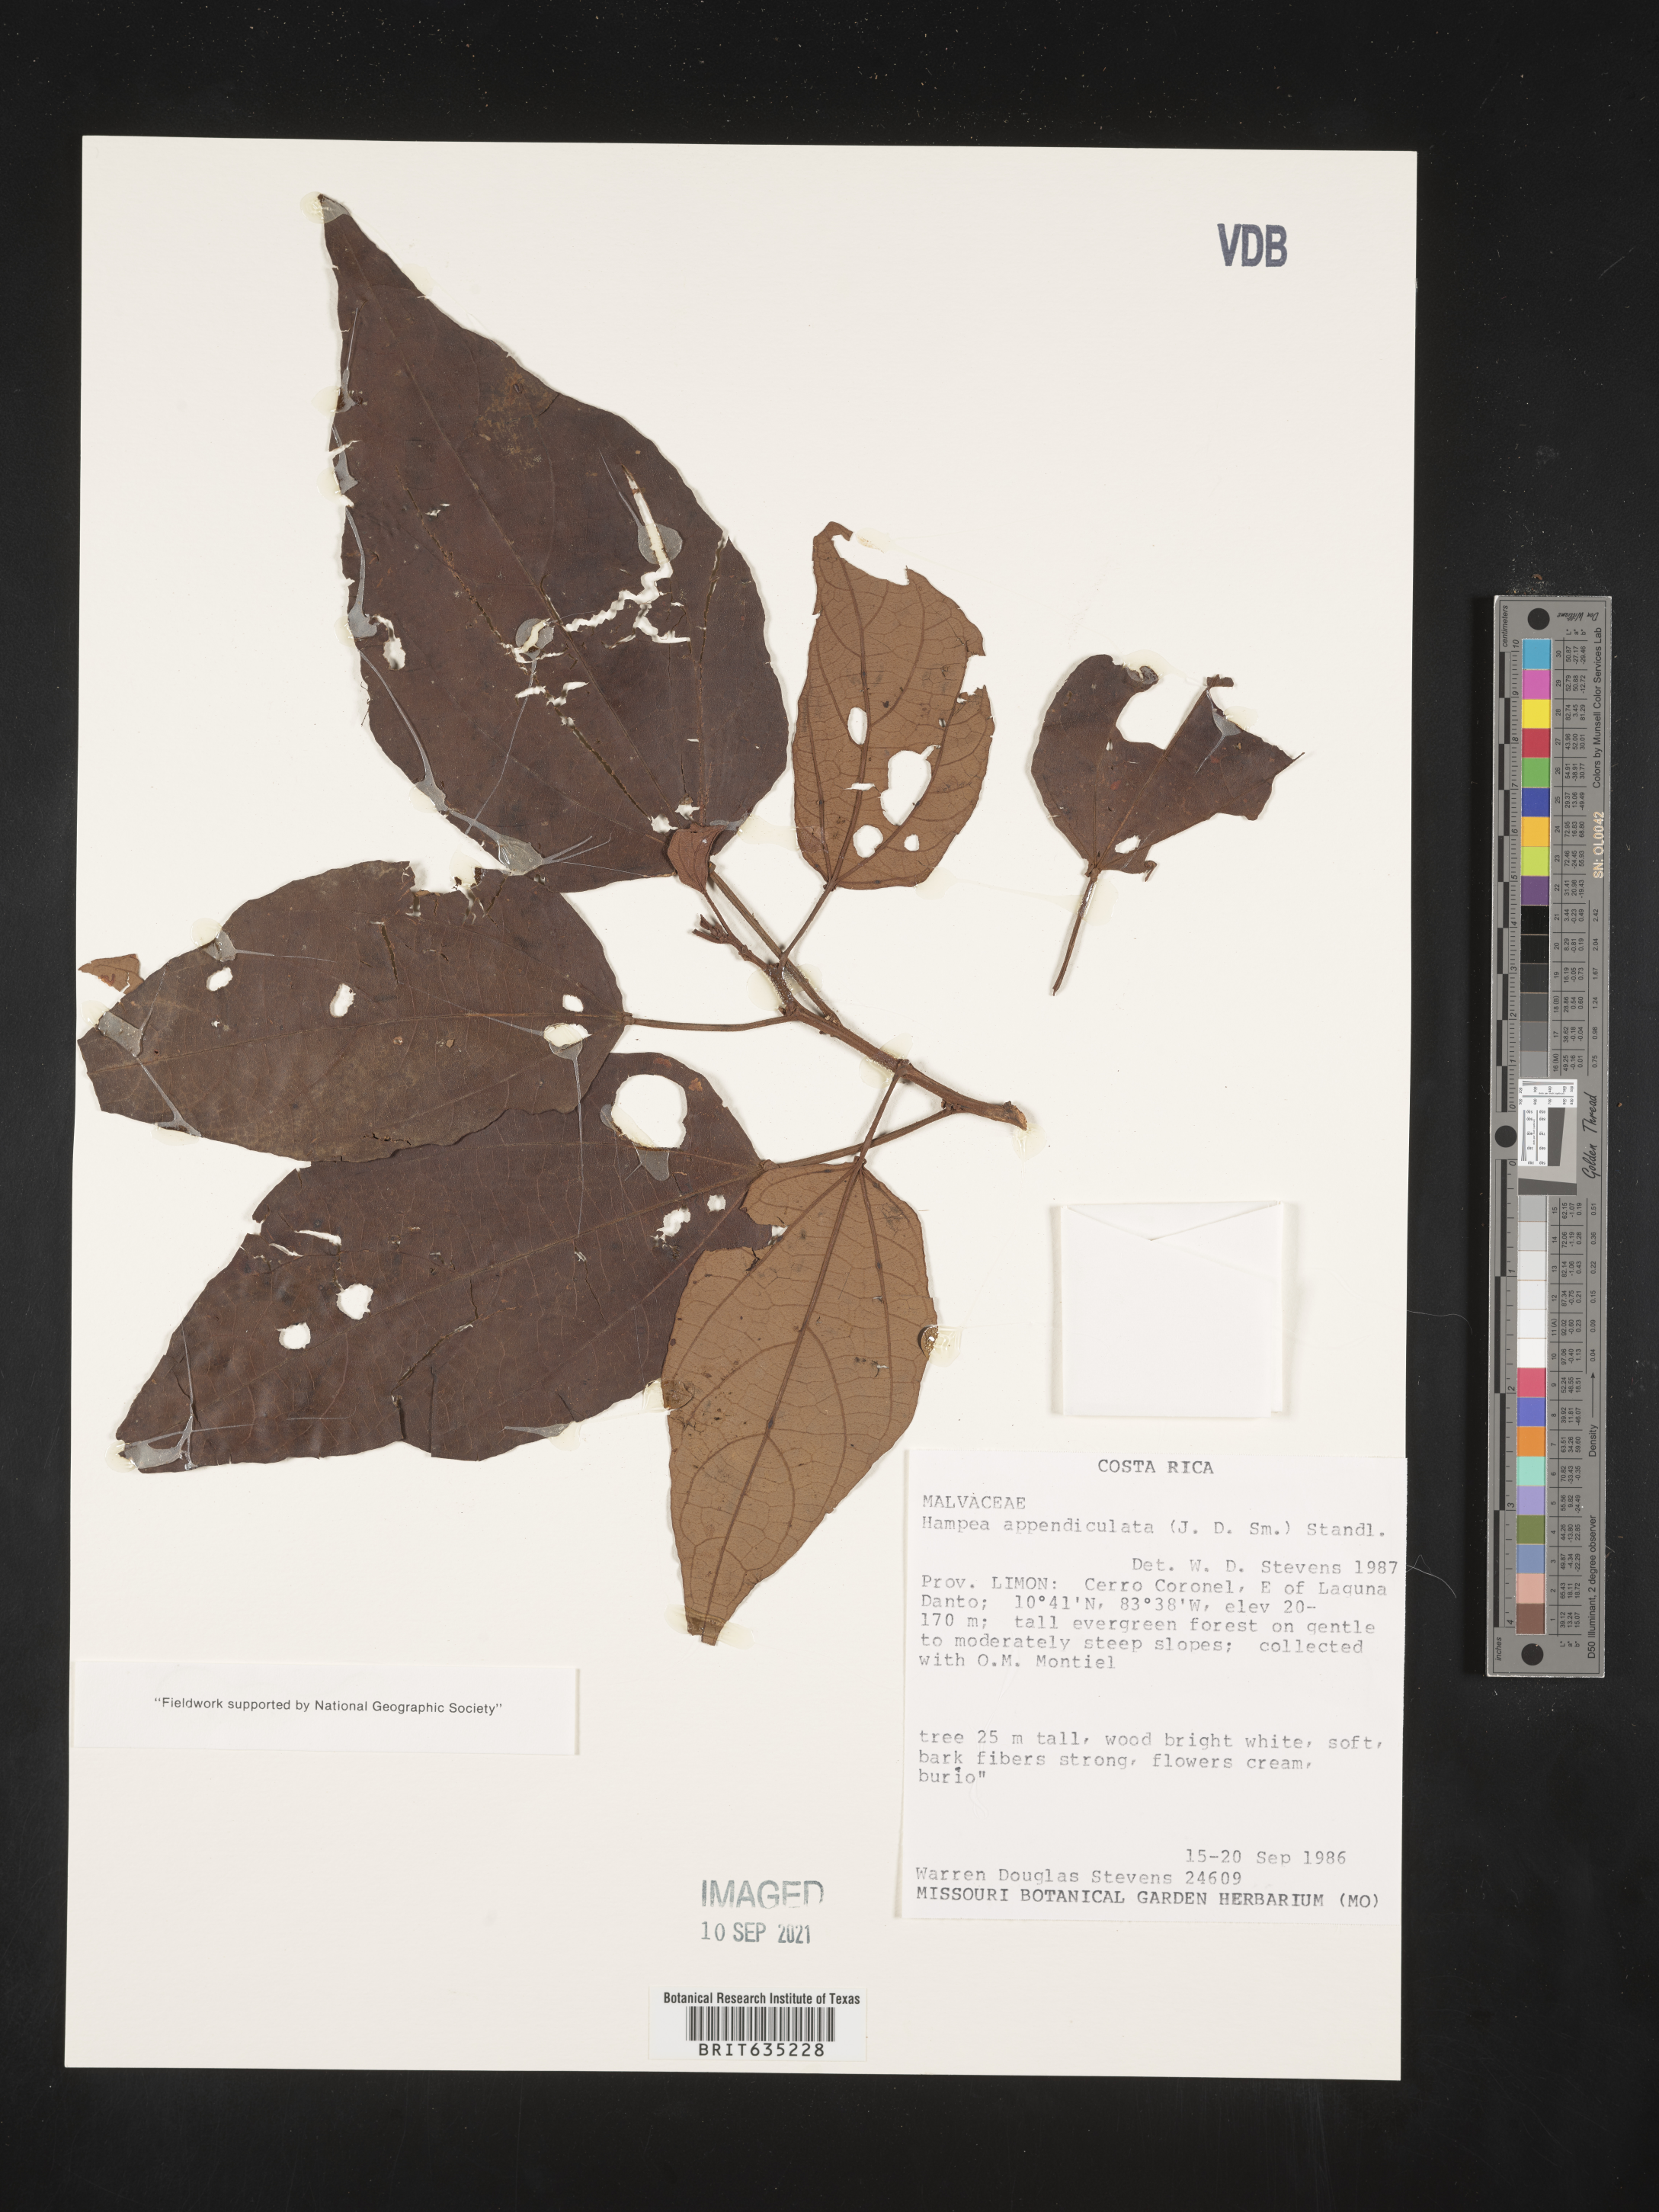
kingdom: Plantae
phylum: Tracheophyta
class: Magnoliopsida
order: Malvales
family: Malvaceae
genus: Hampea
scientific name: Hampea
